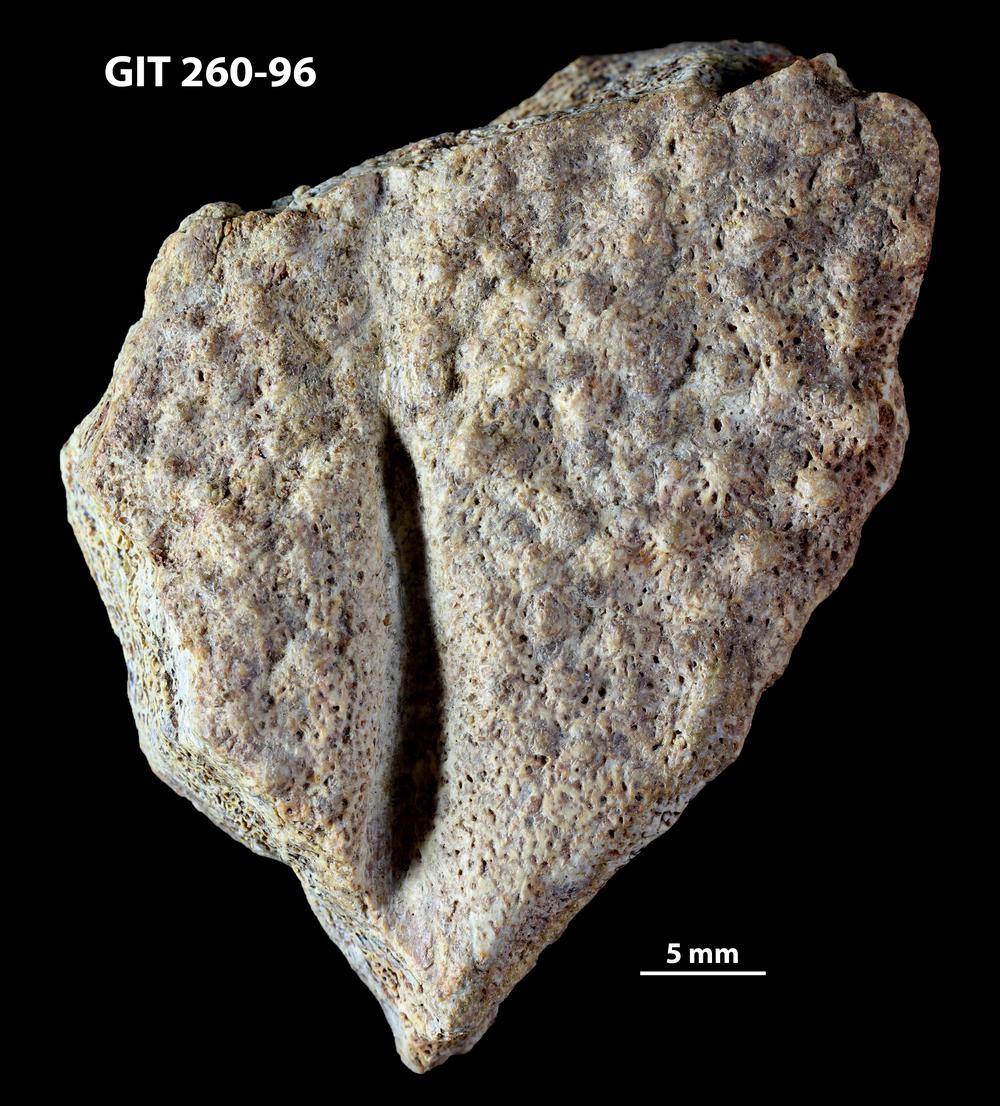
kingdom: Animalia
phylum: Chordata
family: Homostiidae
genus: Homostius
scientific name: Homostius
